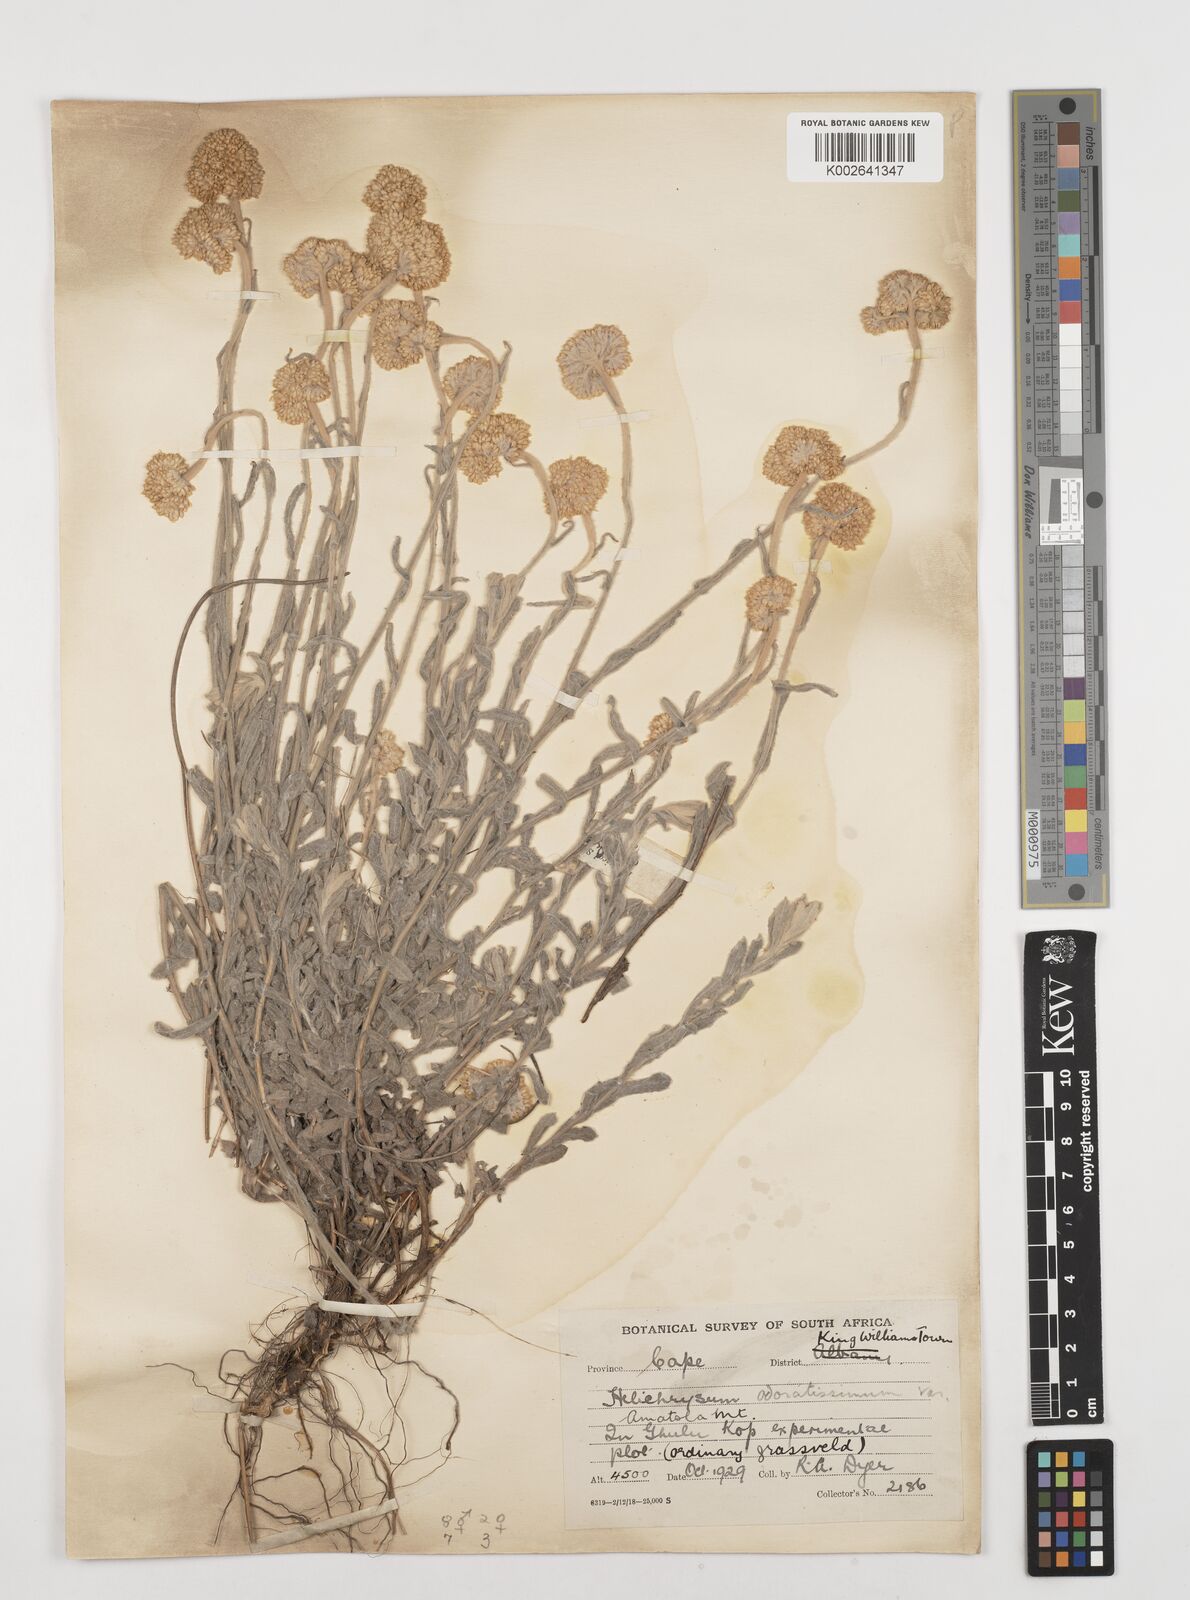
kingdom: Plantae
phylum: Tracheophyta
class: Magnoliopsida
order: Asterales
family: Asteraceae
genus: Helichrysum
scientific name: Helichrysum odoratissimum
